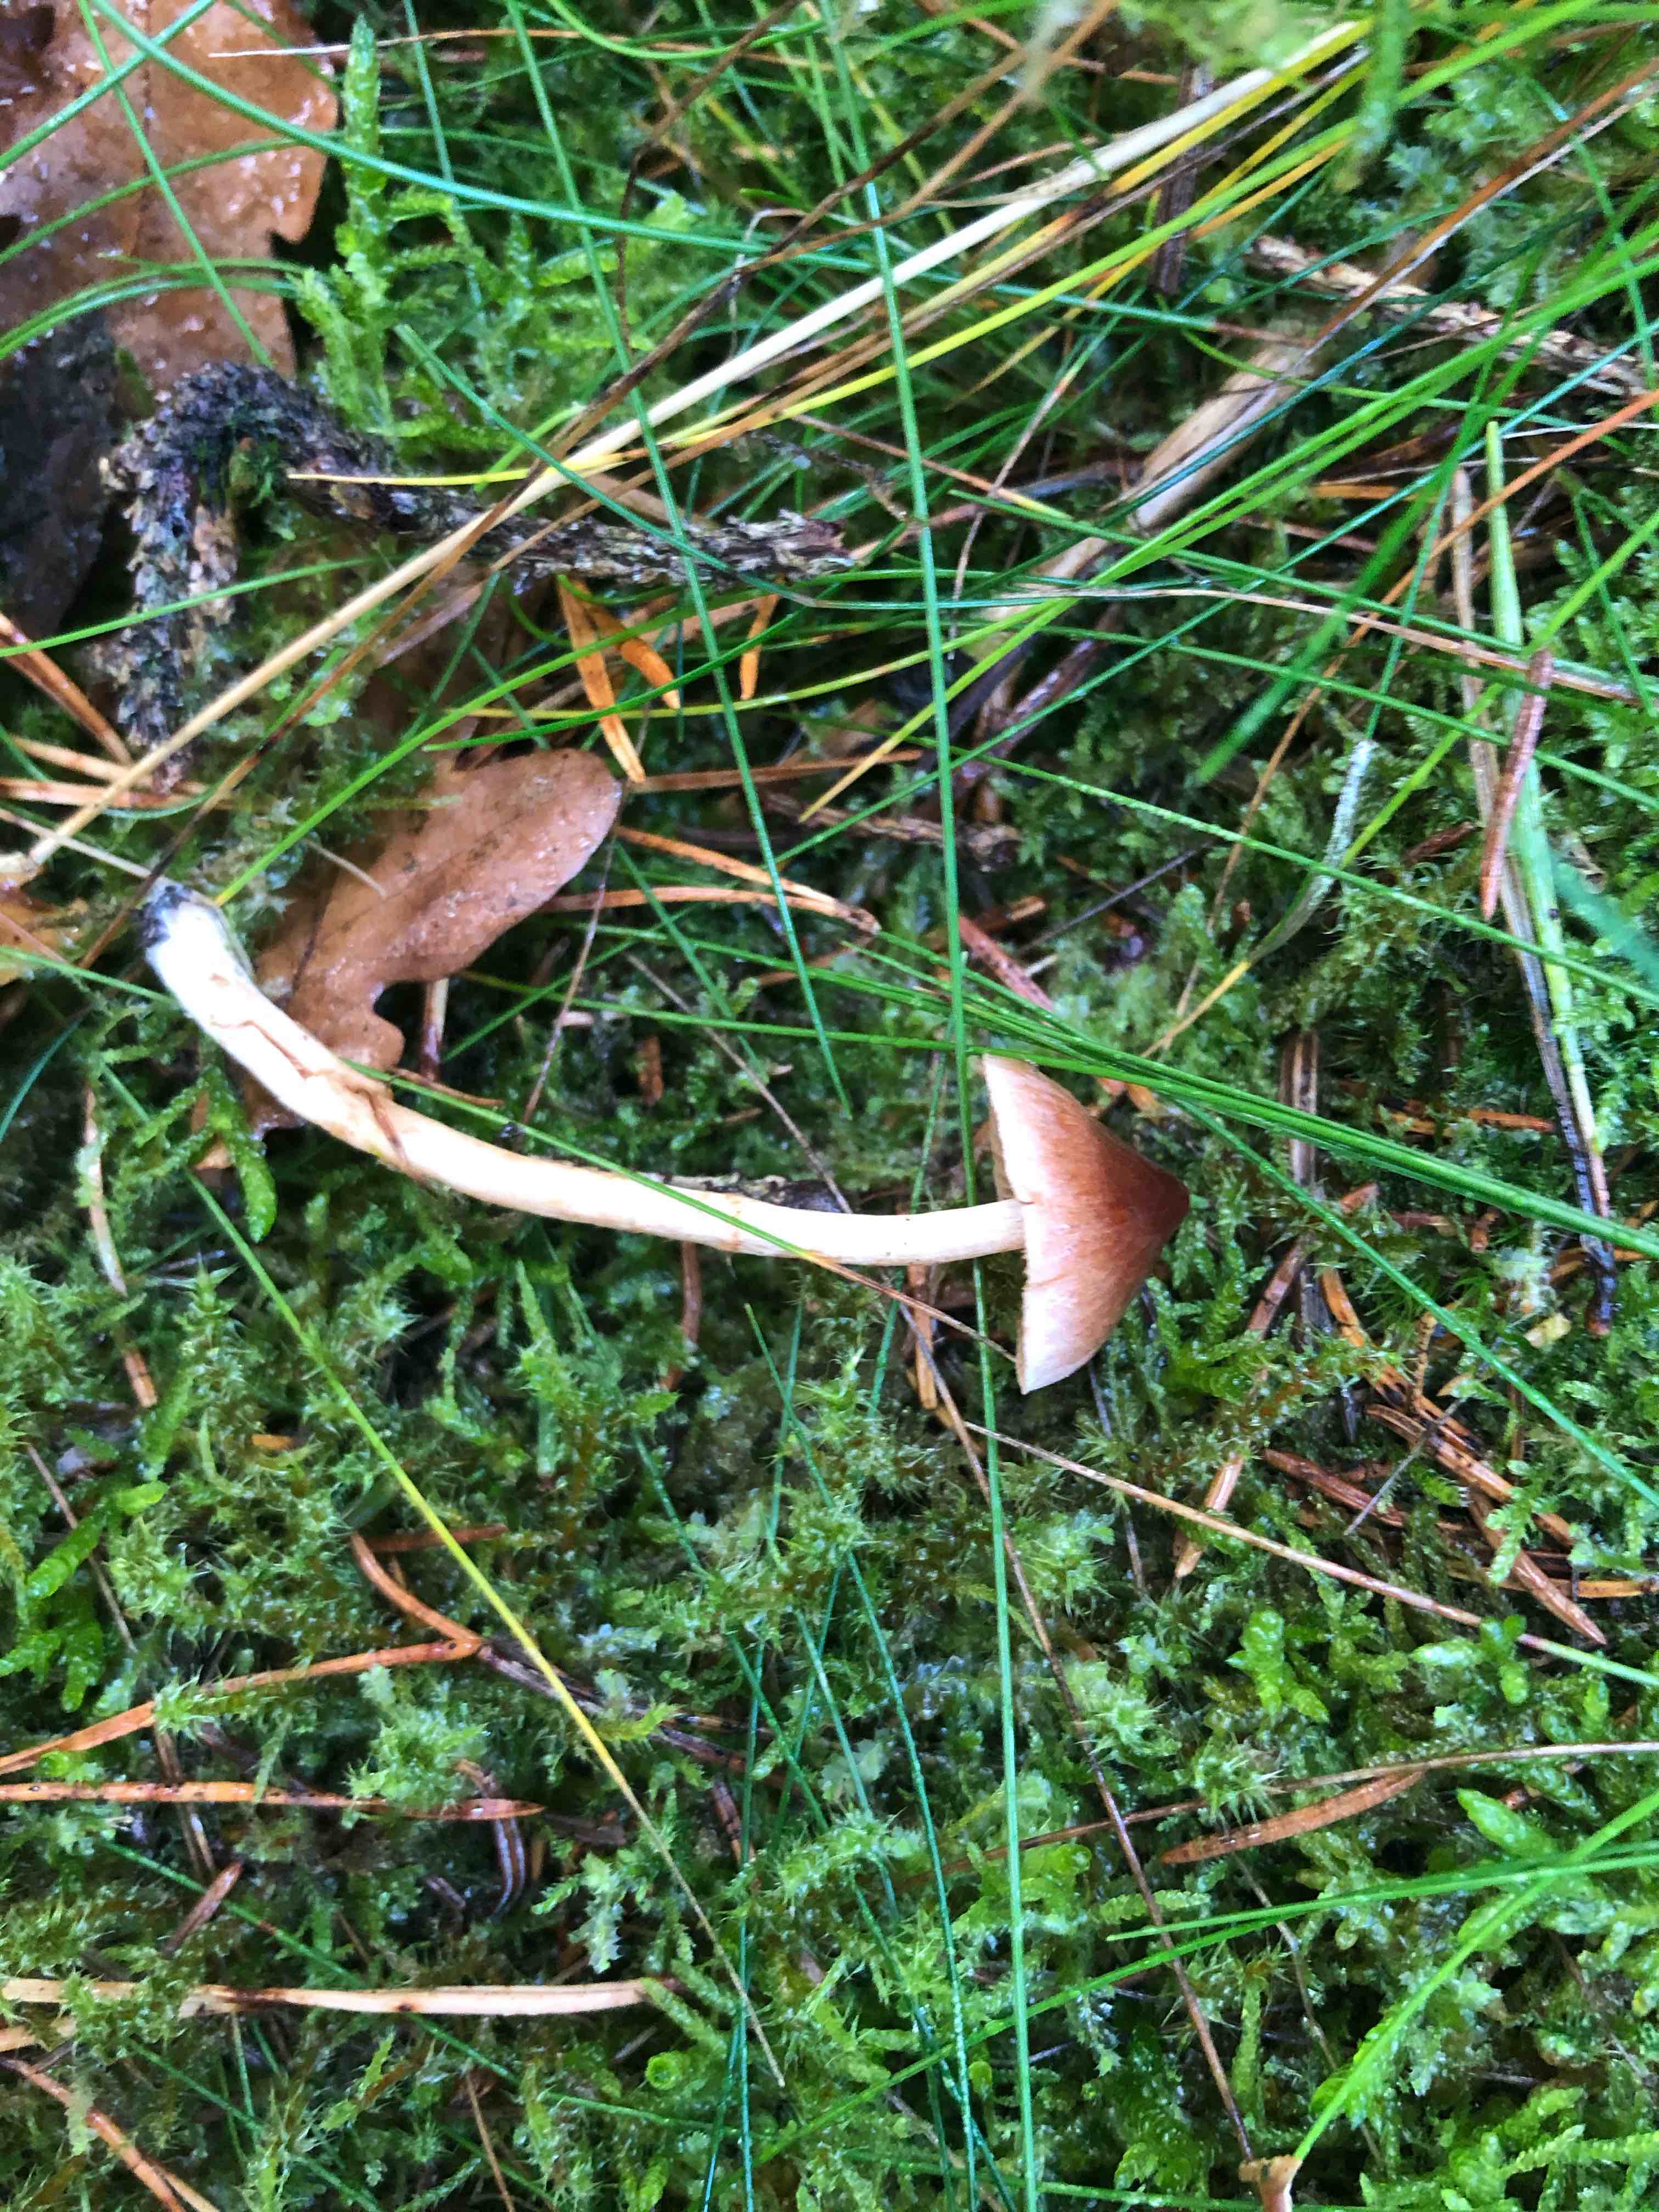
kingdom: Fungi
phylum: Basidiomycota
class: Agaricomycetes
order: Agaricales
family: Cortinariaceae
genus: Cortinarius
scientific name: Cortinarius
